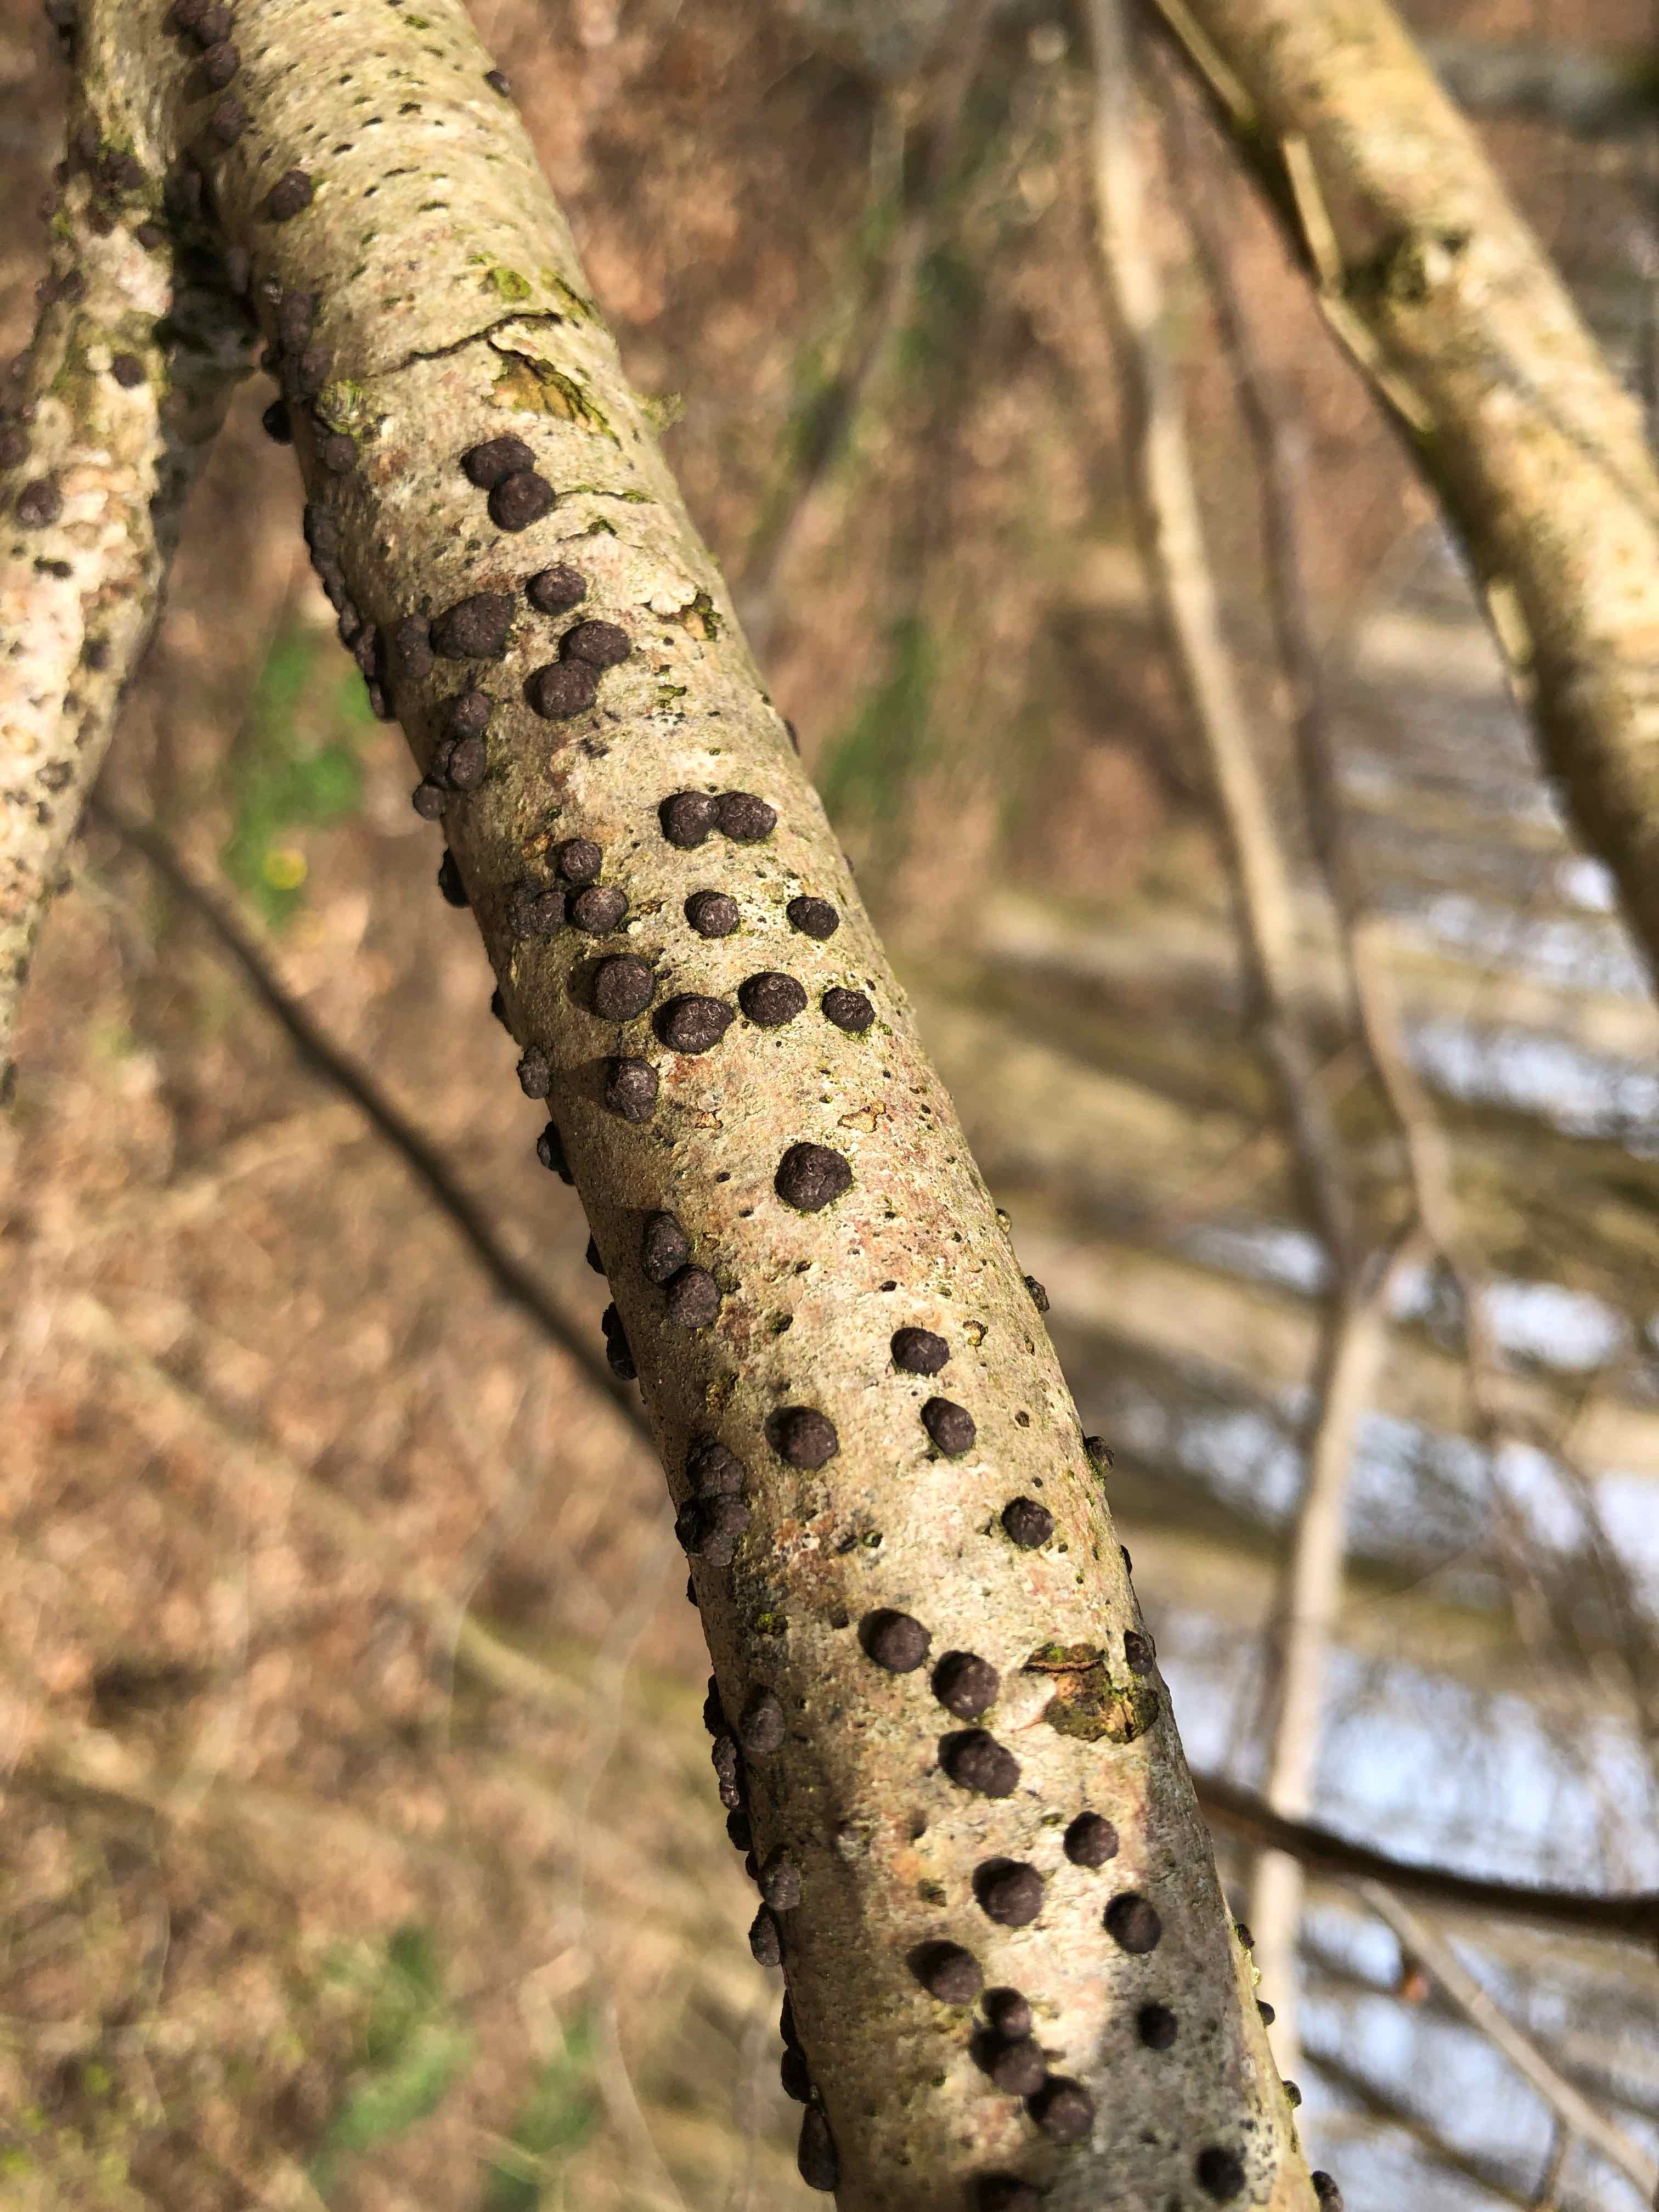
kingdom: Fungi
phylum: Ascomycota
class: Sordariomycetes
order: Xylariales
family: Hypoxylaceae
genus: Hypoxylon
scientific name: Hypoxylon fuscum
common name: kegleformet kulbær
